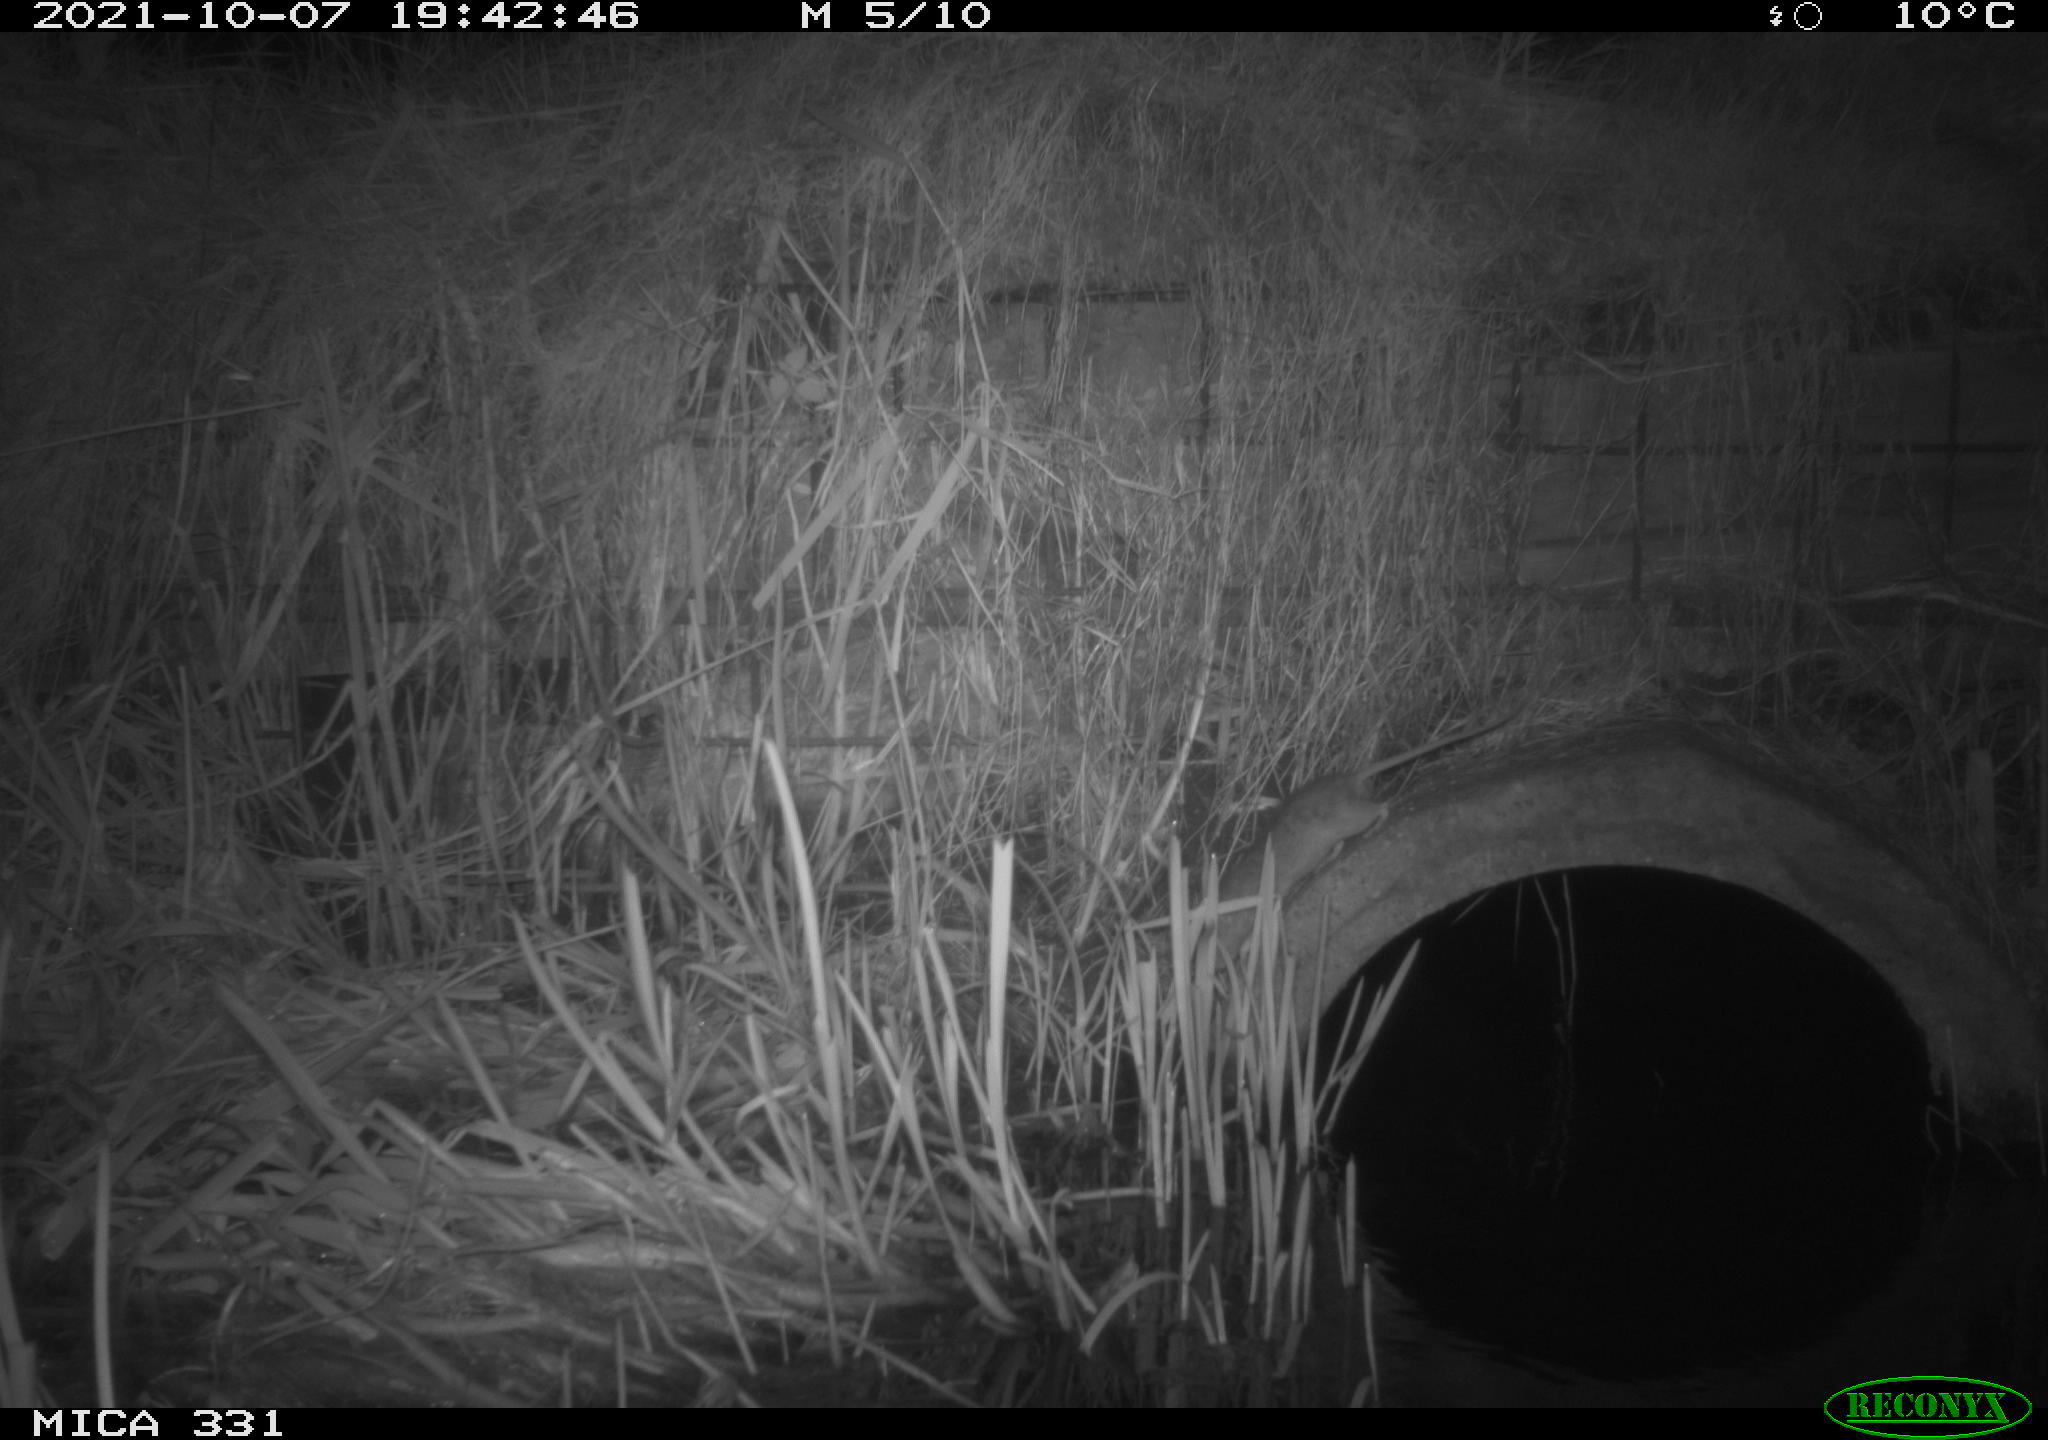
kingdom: Animalia
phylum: Chordata
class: Mammalia
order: Rodentia
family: Muridae
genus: Rattus
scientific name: Rattus norvegicus
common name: Brown rat
